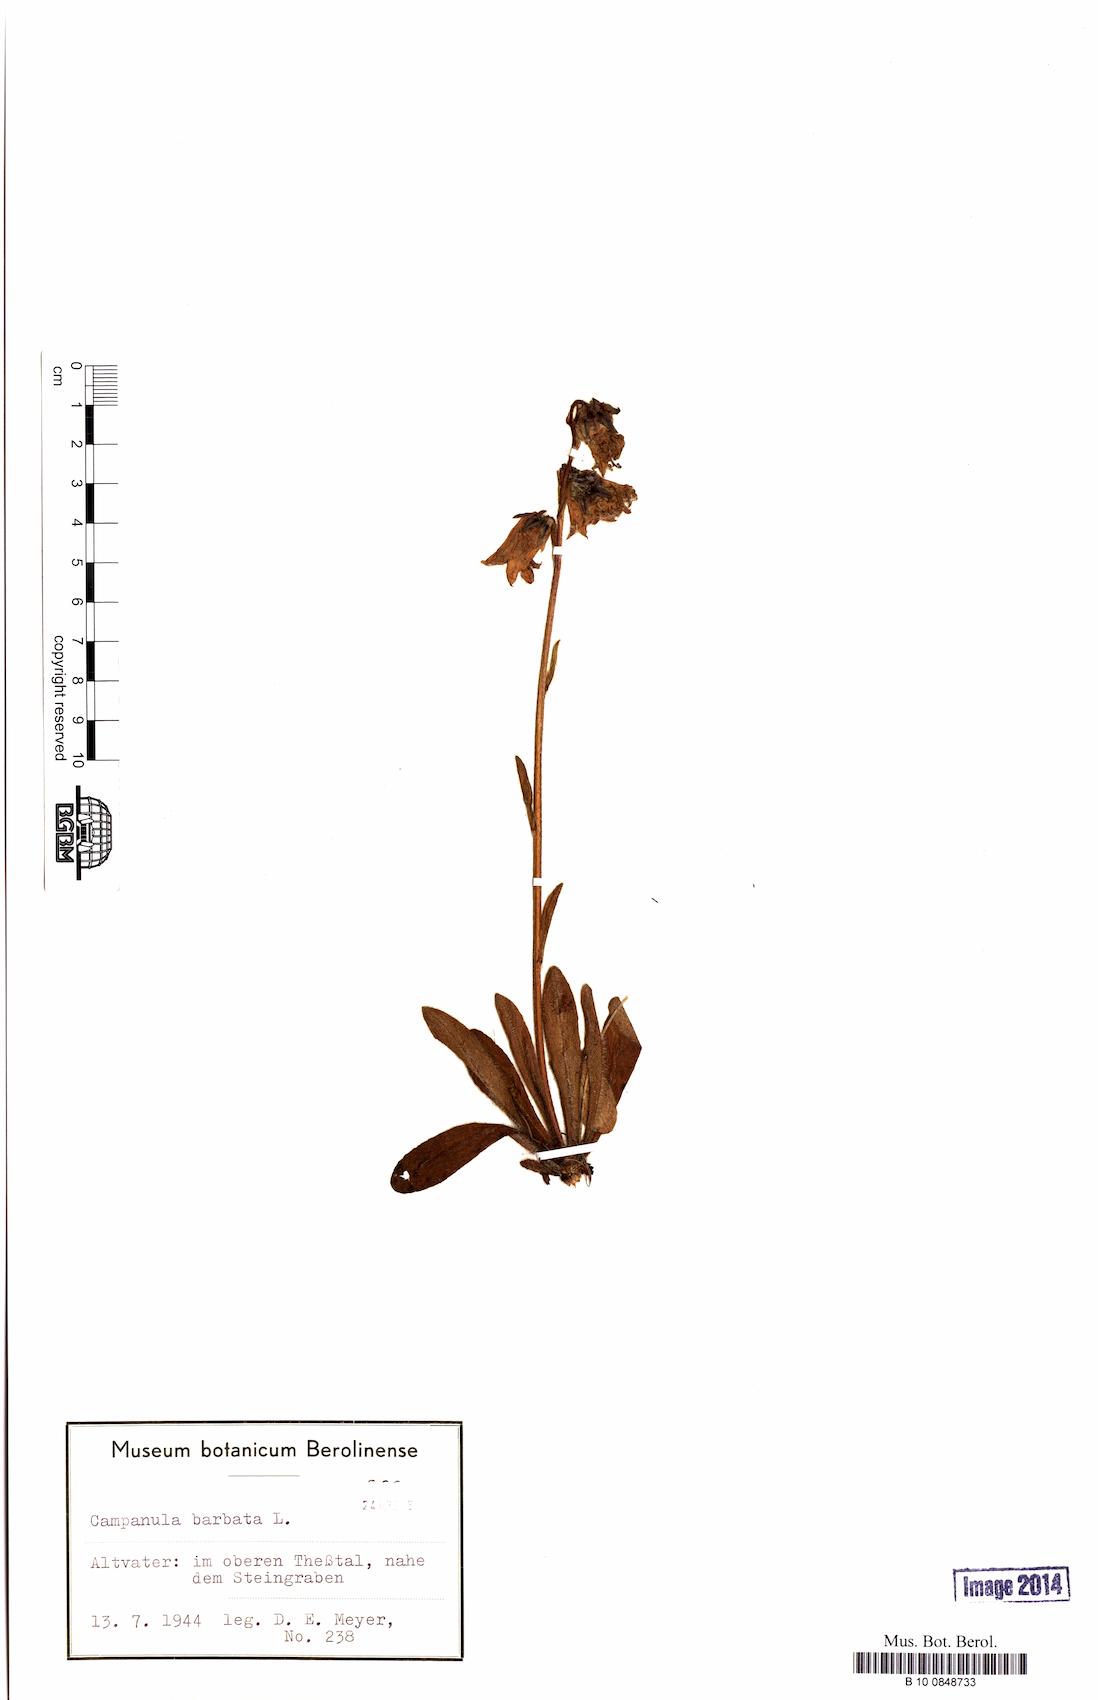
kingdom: Plantae
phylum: Tracheophyta
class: Magnoliopsida
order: Asterales
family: Campanulaceae
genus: Campanula
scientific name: Campanula barbata
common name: Bearded bellflower
